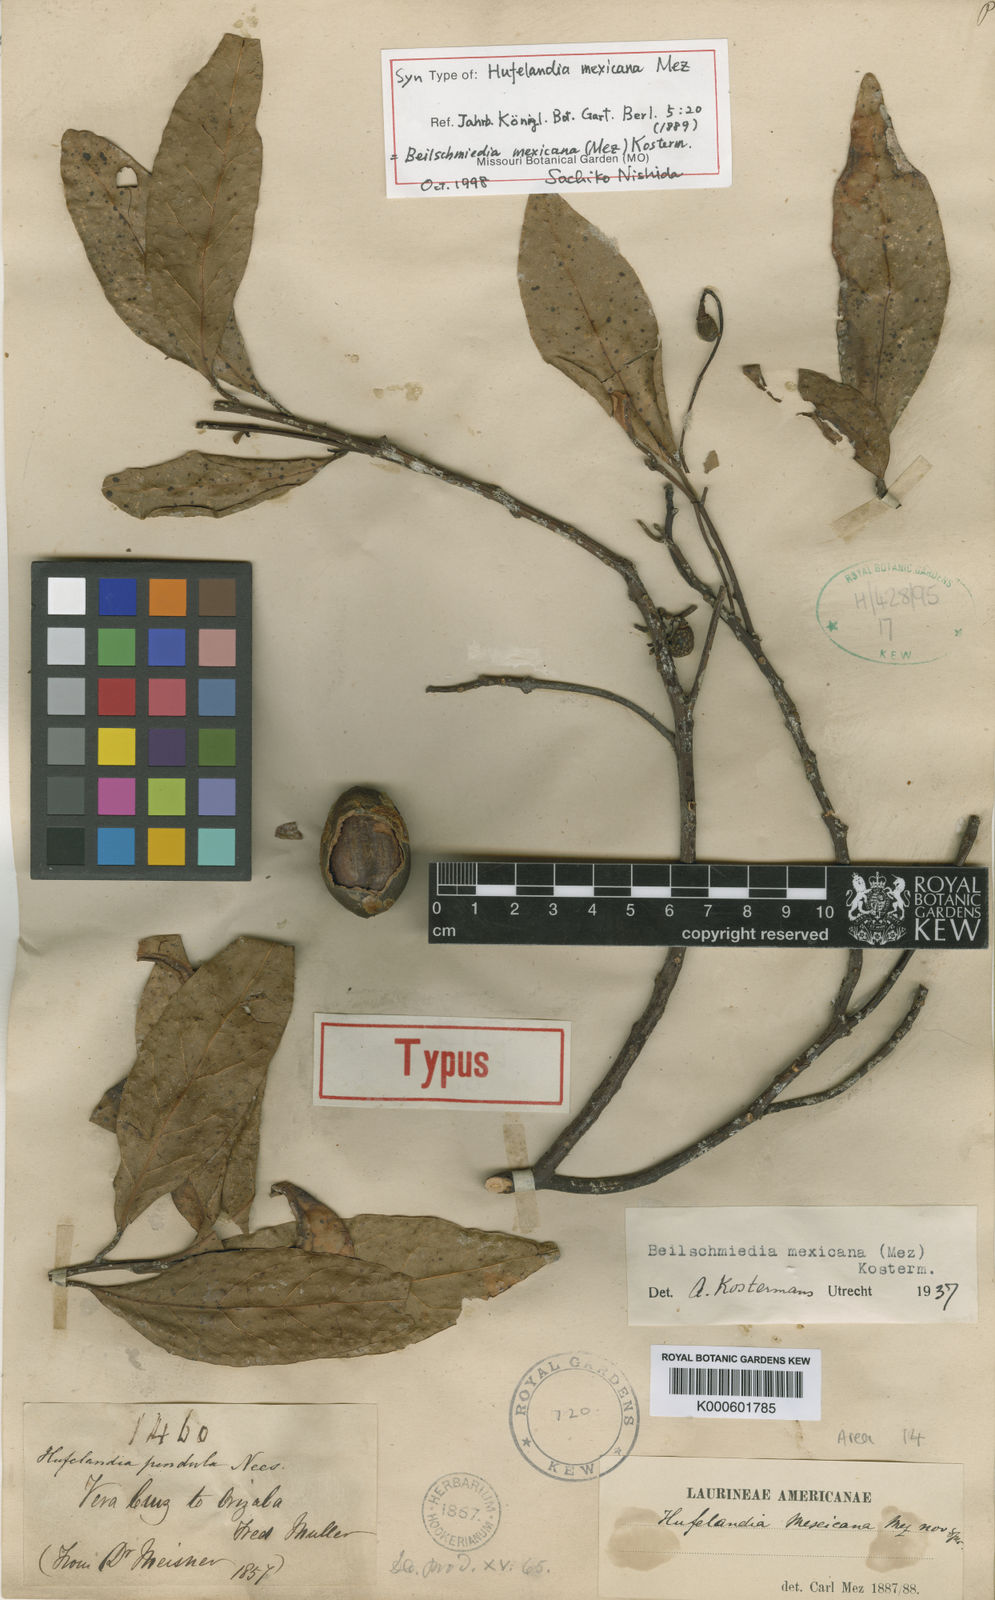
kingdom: Plantae
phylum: Tracheophyta
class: Magnoliopsida
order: Laurales
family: Lauraceae
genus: Beilschmiedia
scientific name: Beilschmiedia mexicana
